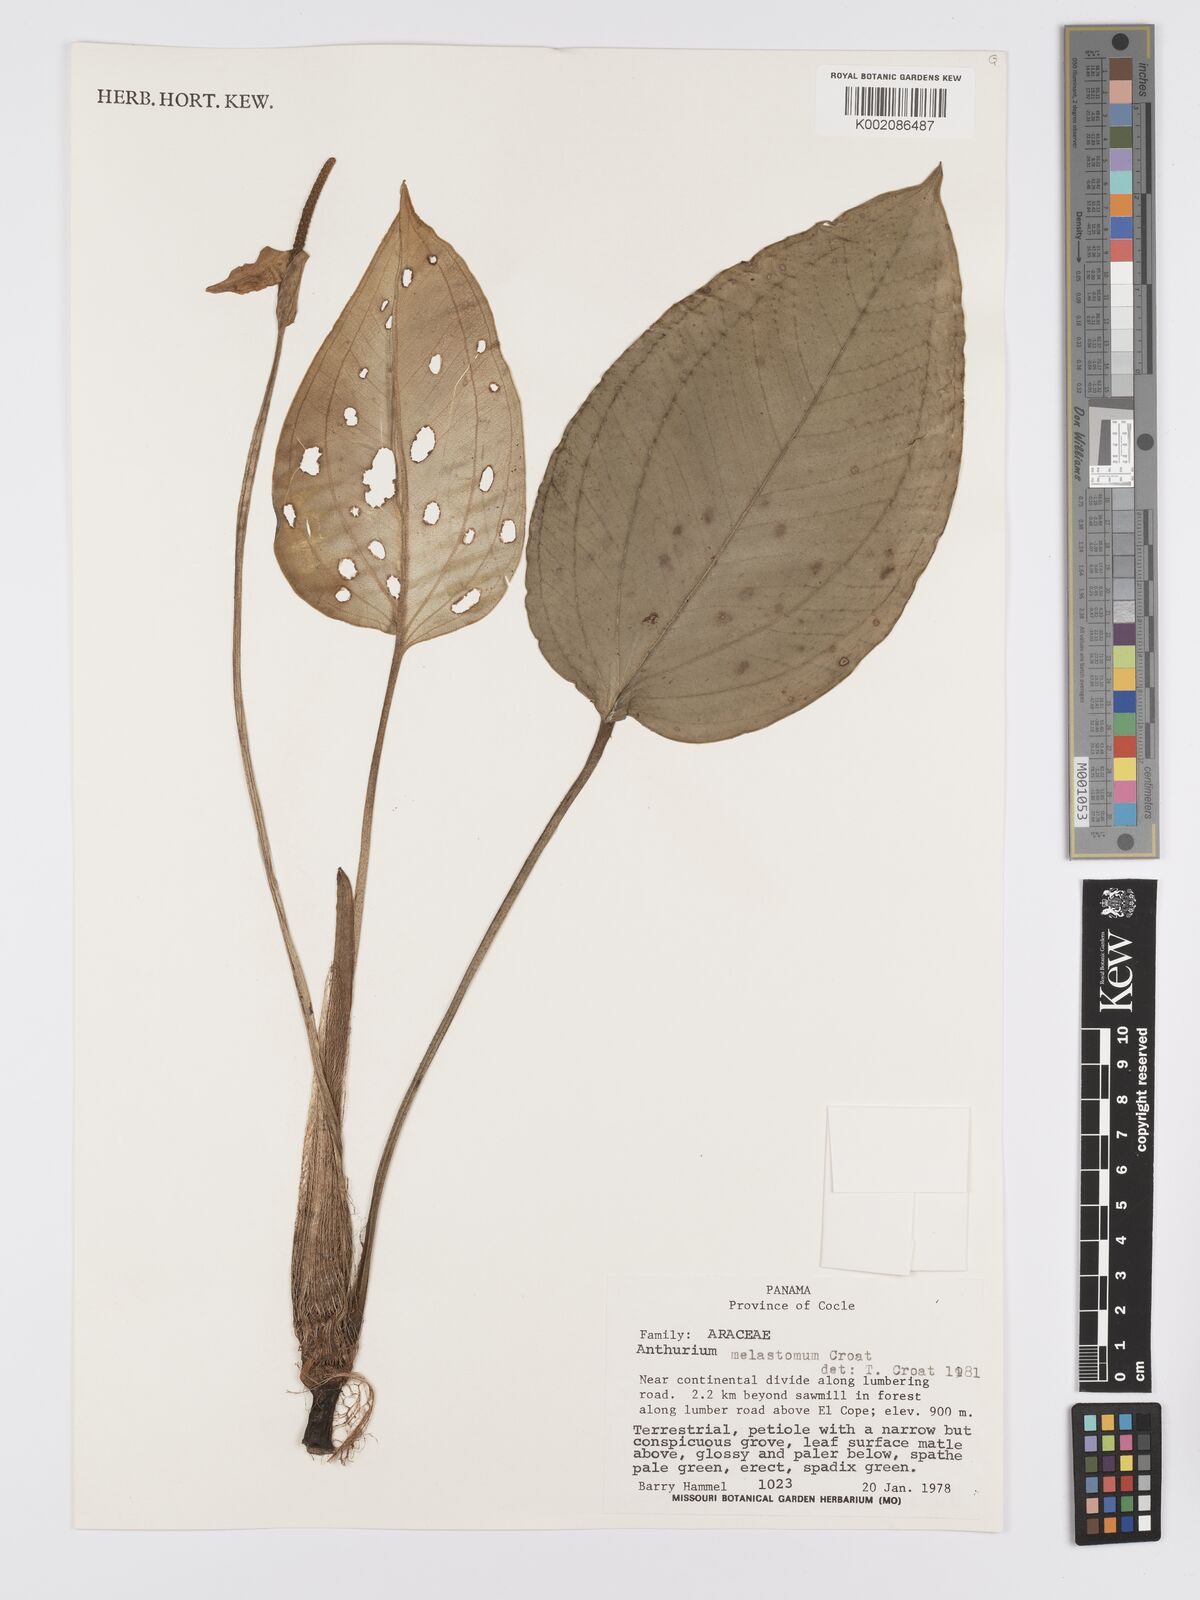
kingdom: Plantae
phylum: Tracheophyta
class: Liliopsida
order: Alismatales
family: Araceae
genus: Anthurium
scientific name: Anthurium melastomatis
